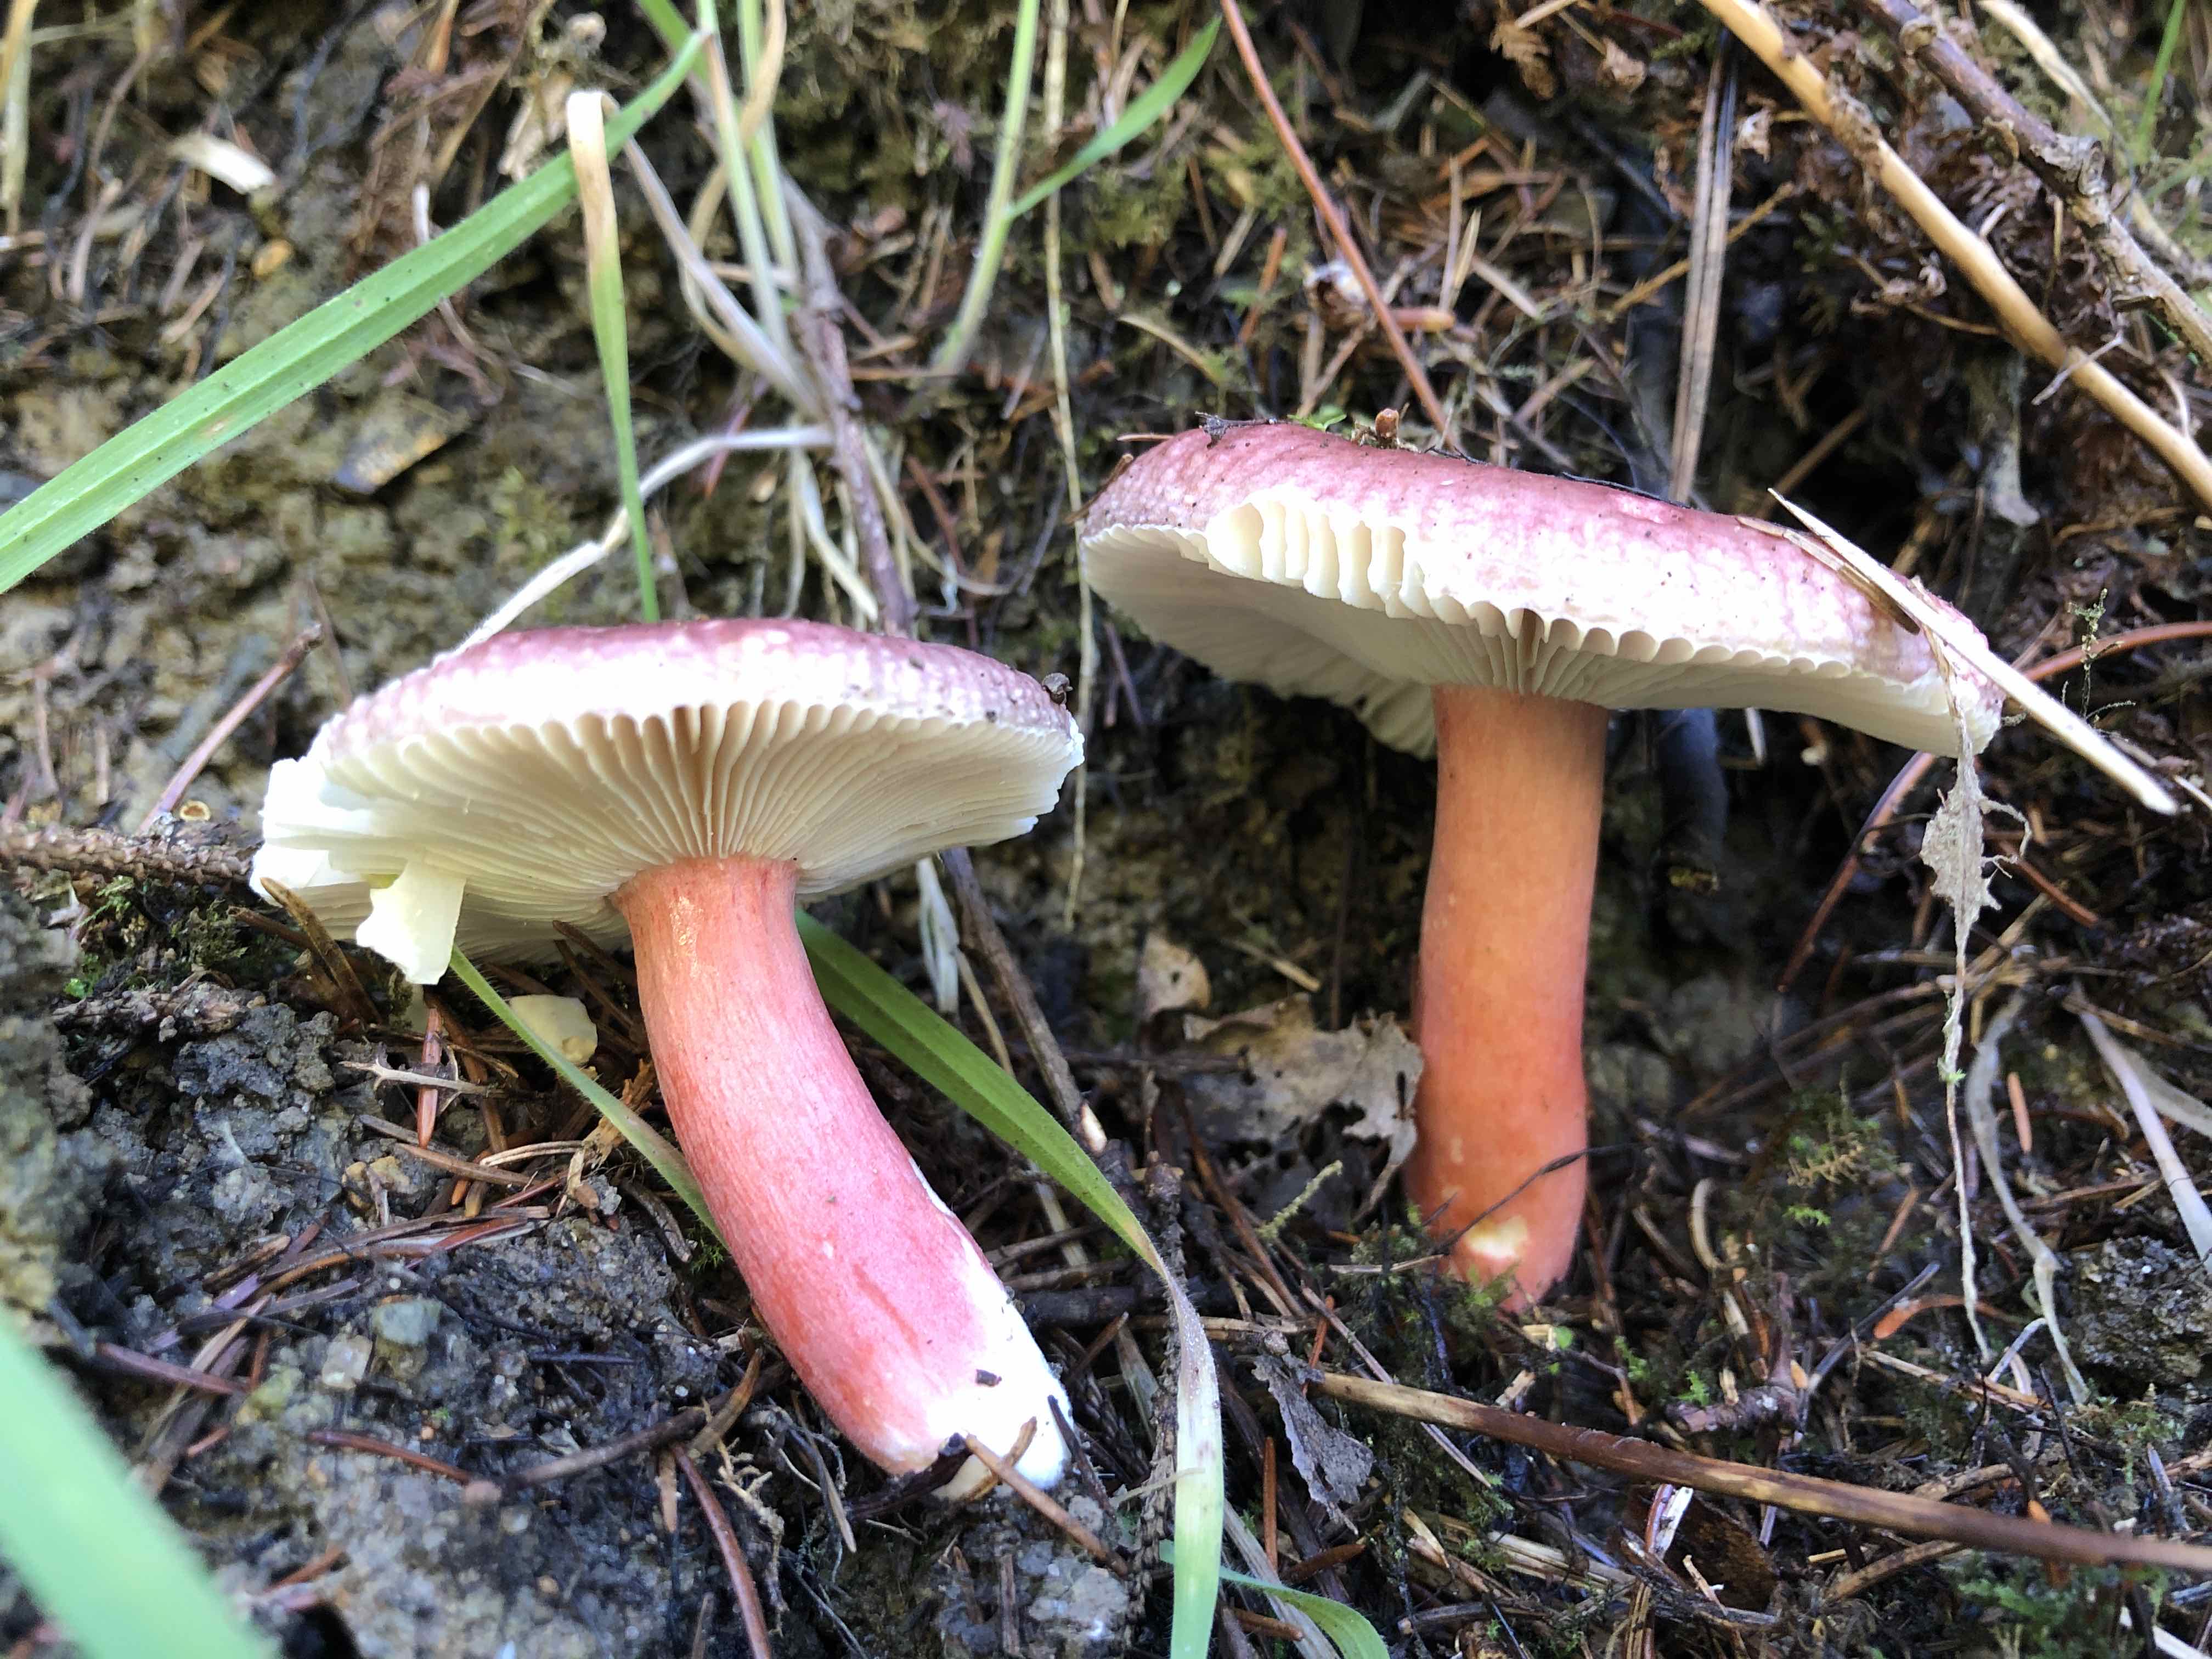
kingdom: Fungi
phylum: Basidiomycota
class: Agaricomycetes
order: Russulales
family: Russulaceae
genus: Russula
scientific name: Russula queletii
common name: Quélets skørhat
